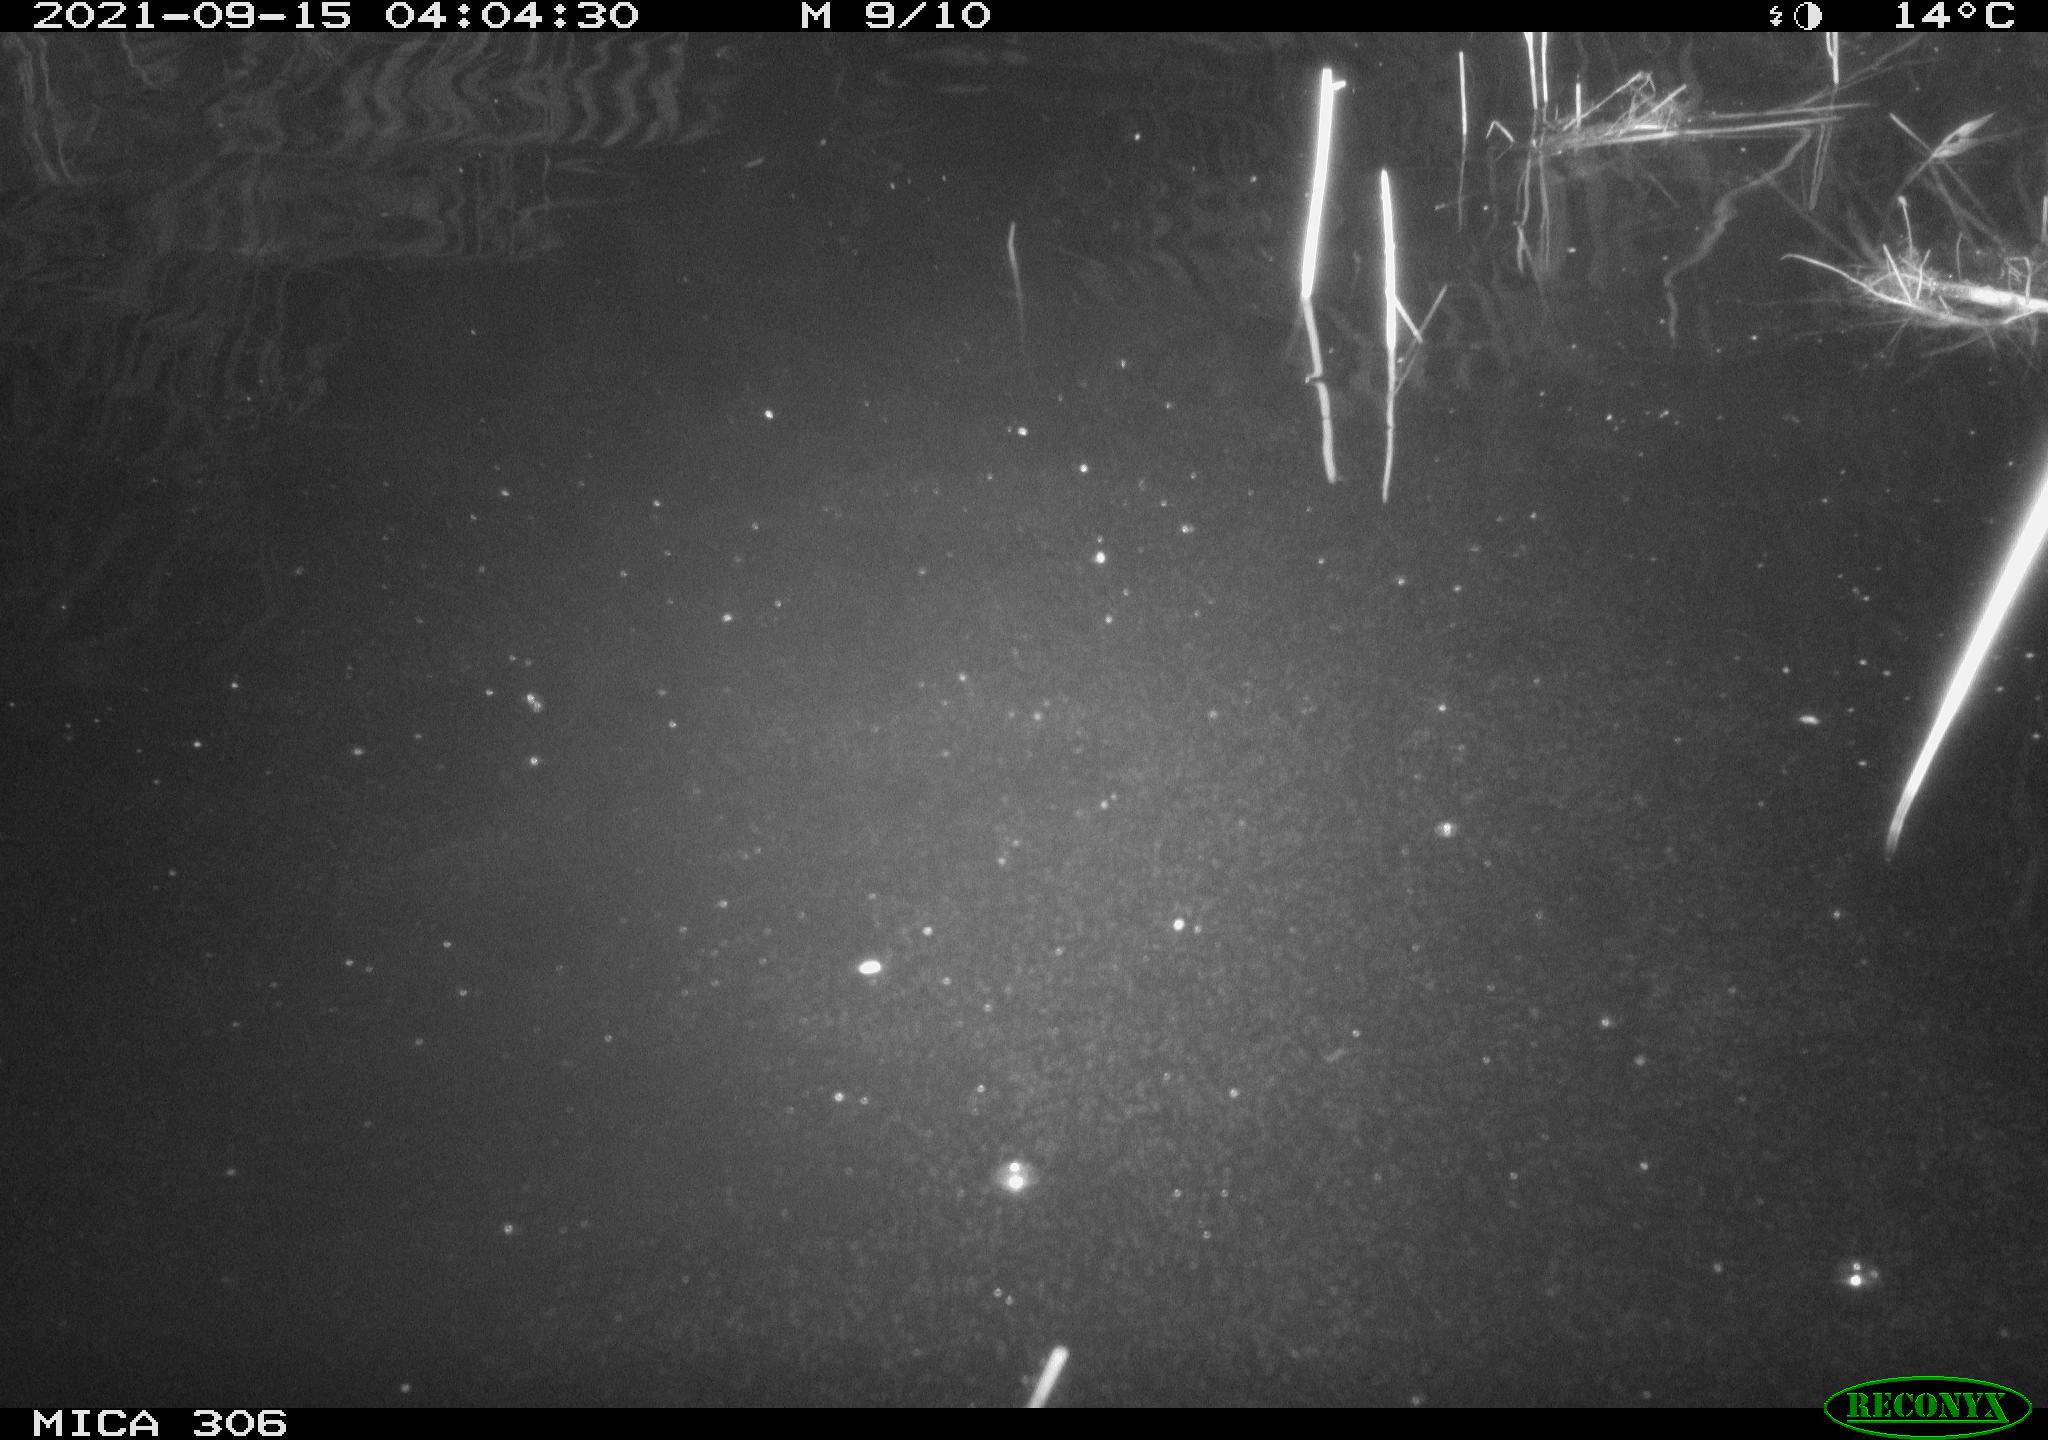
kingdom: Animalia
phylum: Chordata
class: Mammalia
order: Rodentia
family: Cricetidae
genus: Ondatra
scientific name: Ondatra zibethicus
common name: Muskrat
